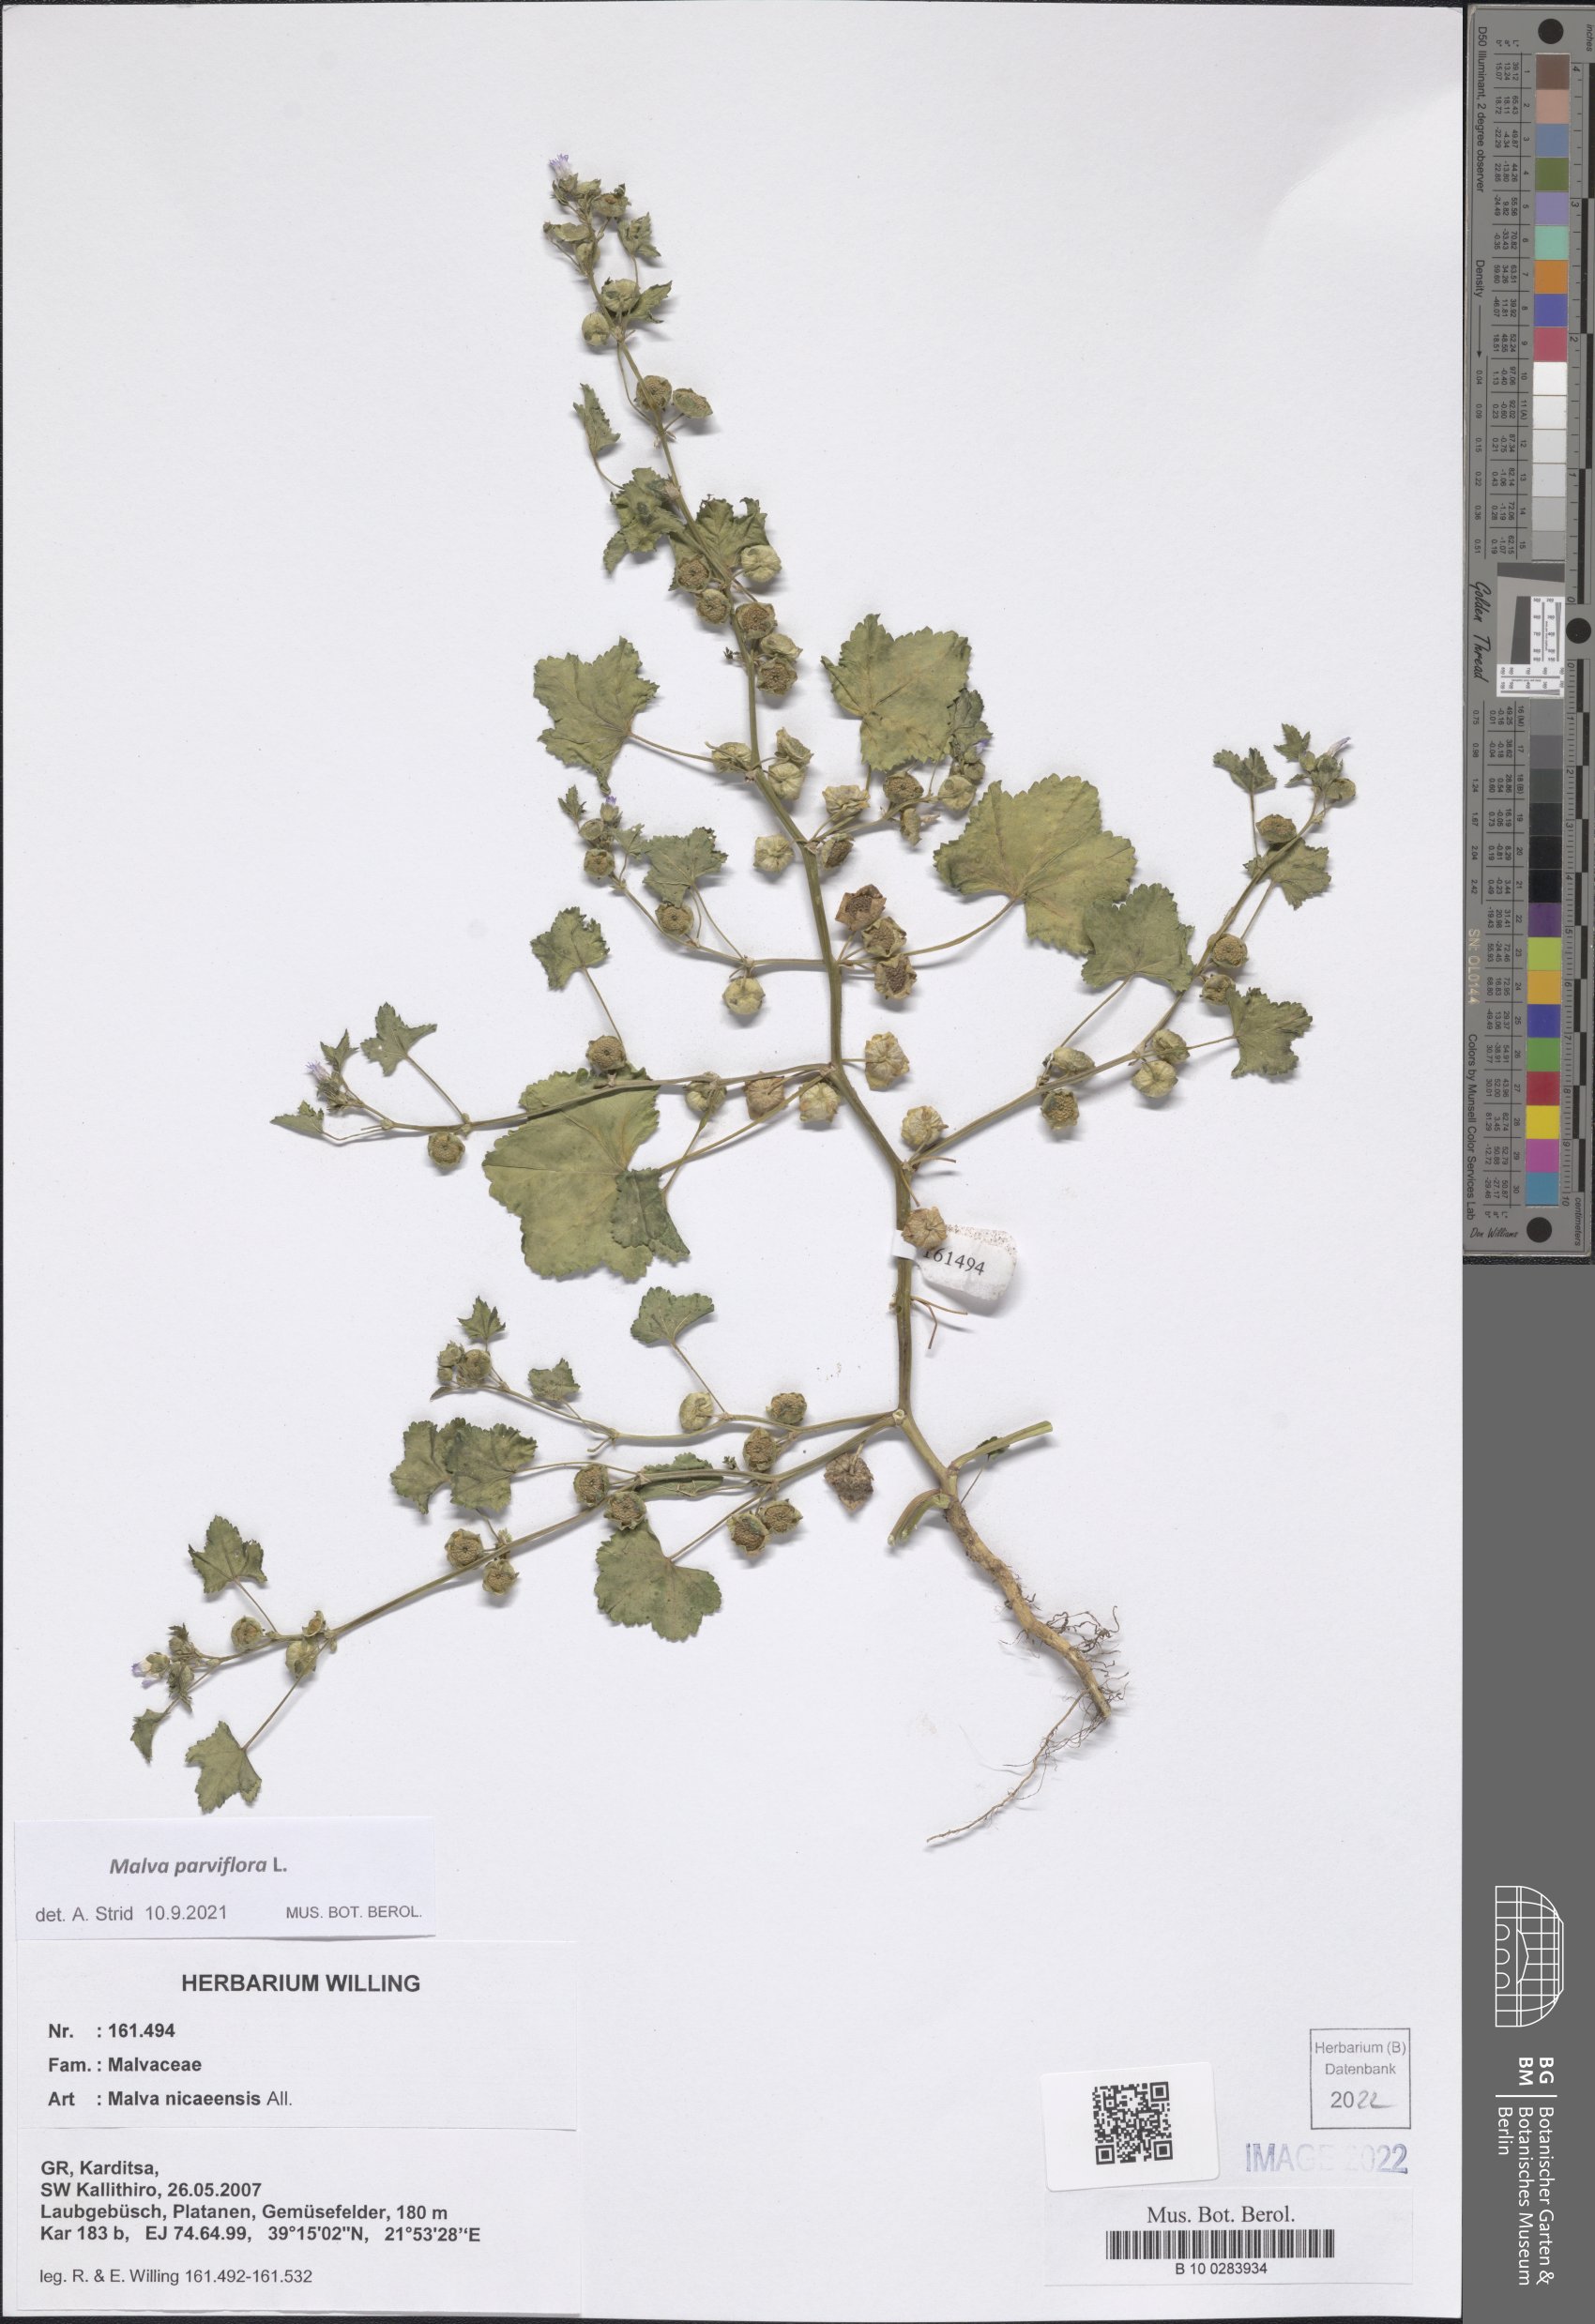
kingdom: Plantae
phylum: Tracheophyta
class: Magnoliopsida
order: Malvales
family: Malvaceae
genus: Malva
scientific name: Malva parviflora
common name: Least mallow
